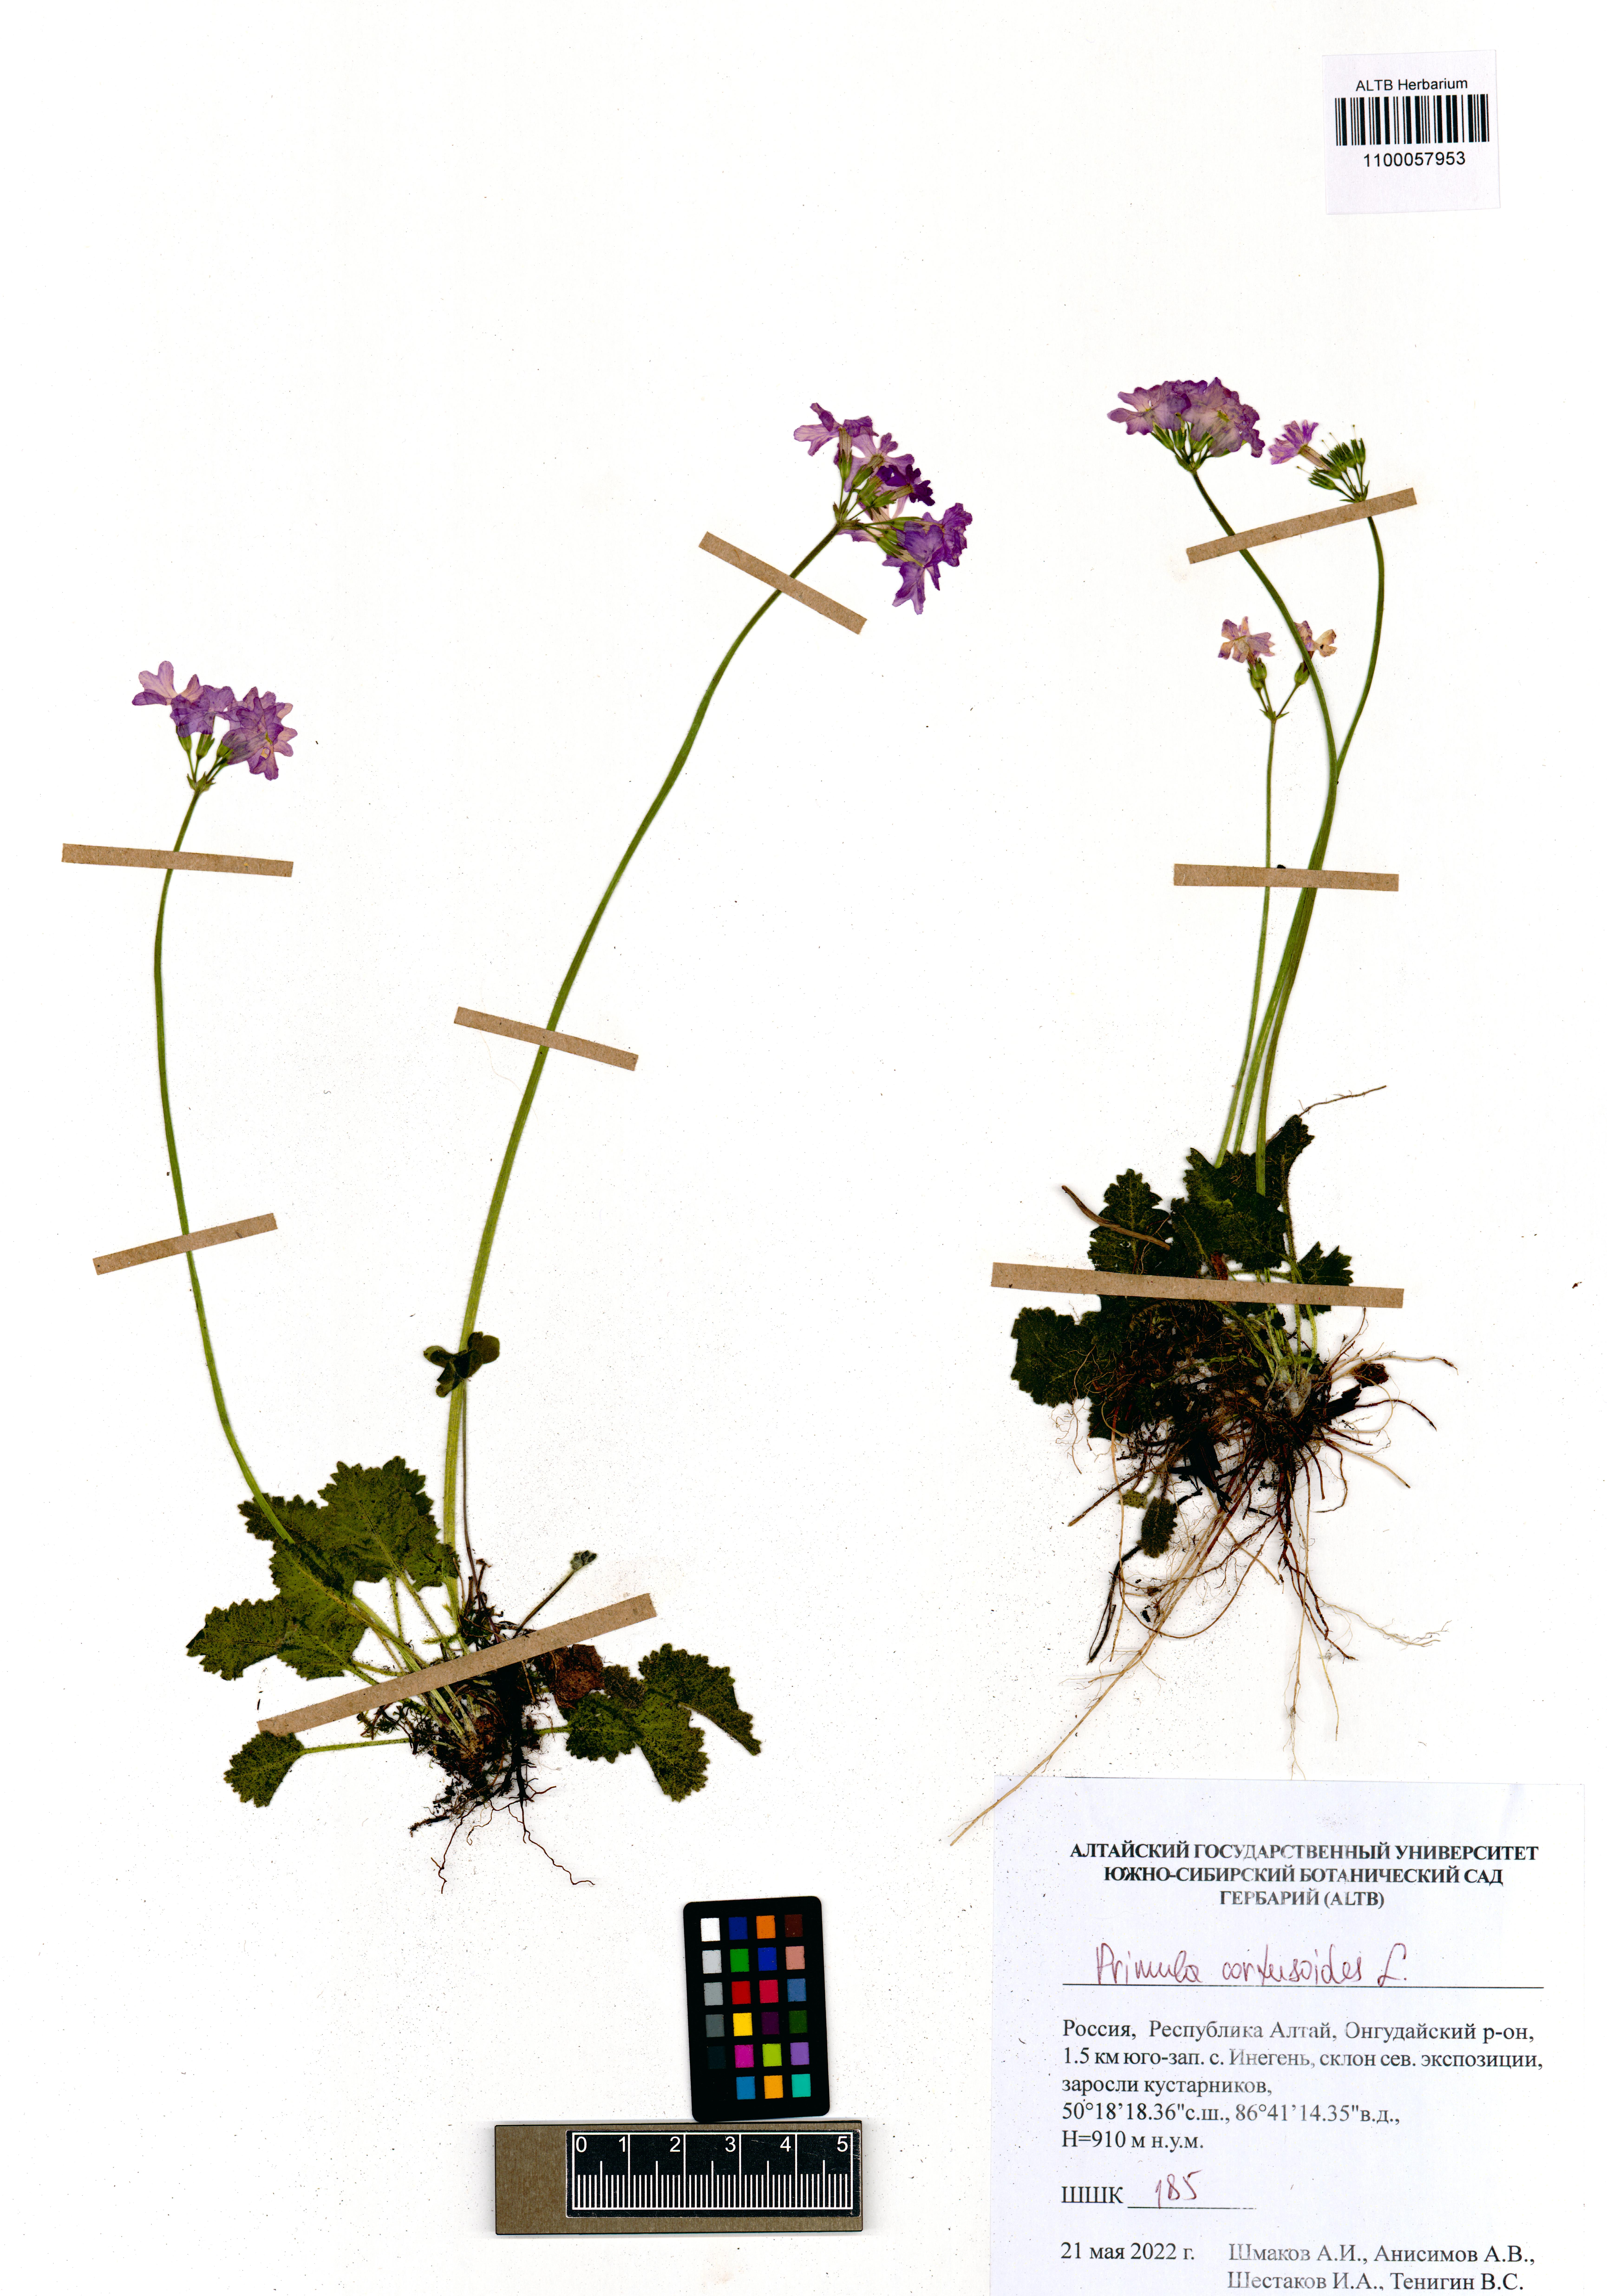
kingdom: Plantae
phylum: Tracheophyta
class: Magnoliopsida
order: Ericales
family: Primulaceae
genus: Primula
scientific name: Primula cortusoides
